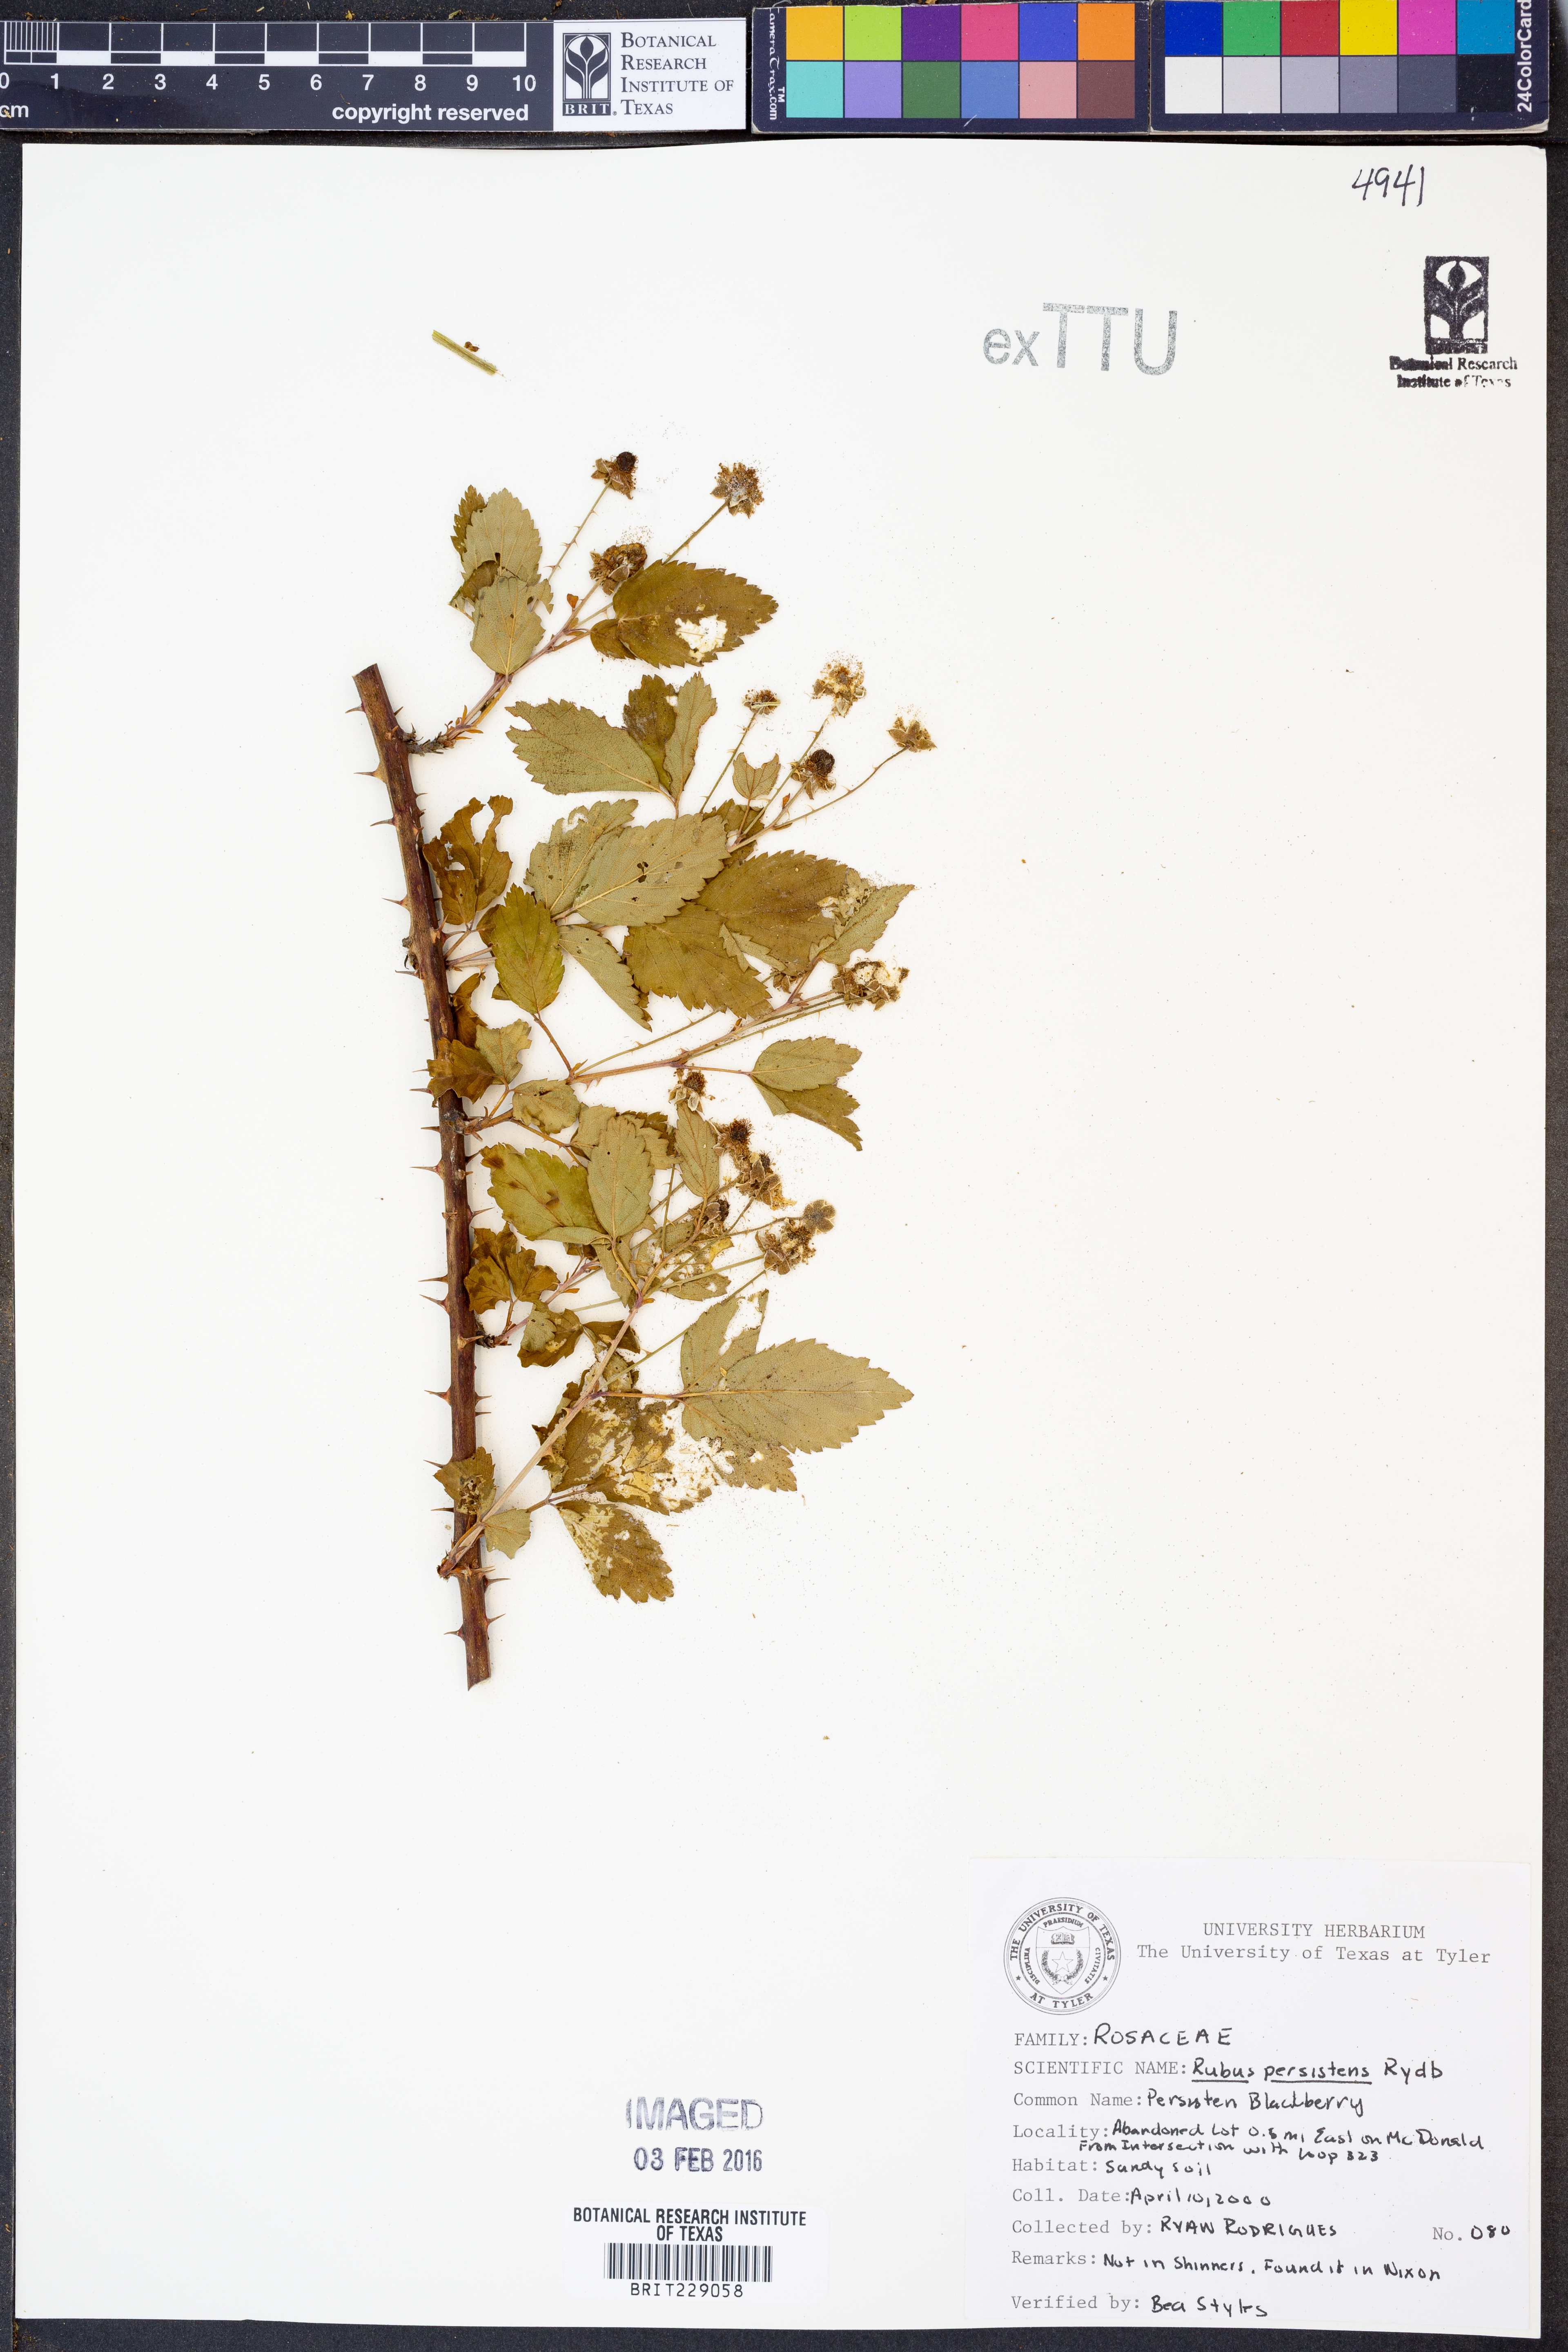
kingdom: Plantae
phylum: Tracheophyta
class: Magnoliopsida
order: Rosales
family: Rosaceae
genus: Rubus
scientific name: Rubus persistens
